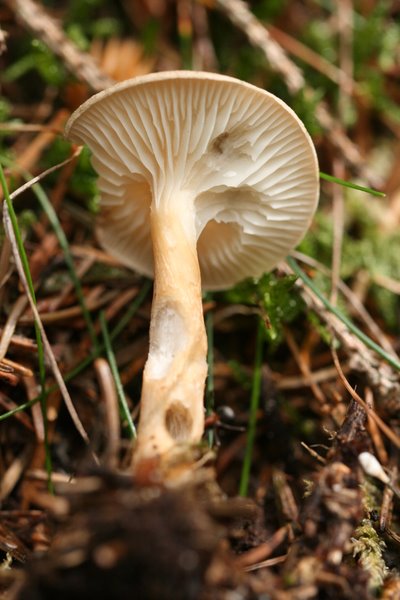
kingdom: Fungi
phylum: Basidiomycota
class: Agaricomycetes
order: Agaricales
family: Tricholomataceae
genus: Infundibulicybe
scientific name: Infundibulicybe squamulosa
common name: småskællet tragthat
